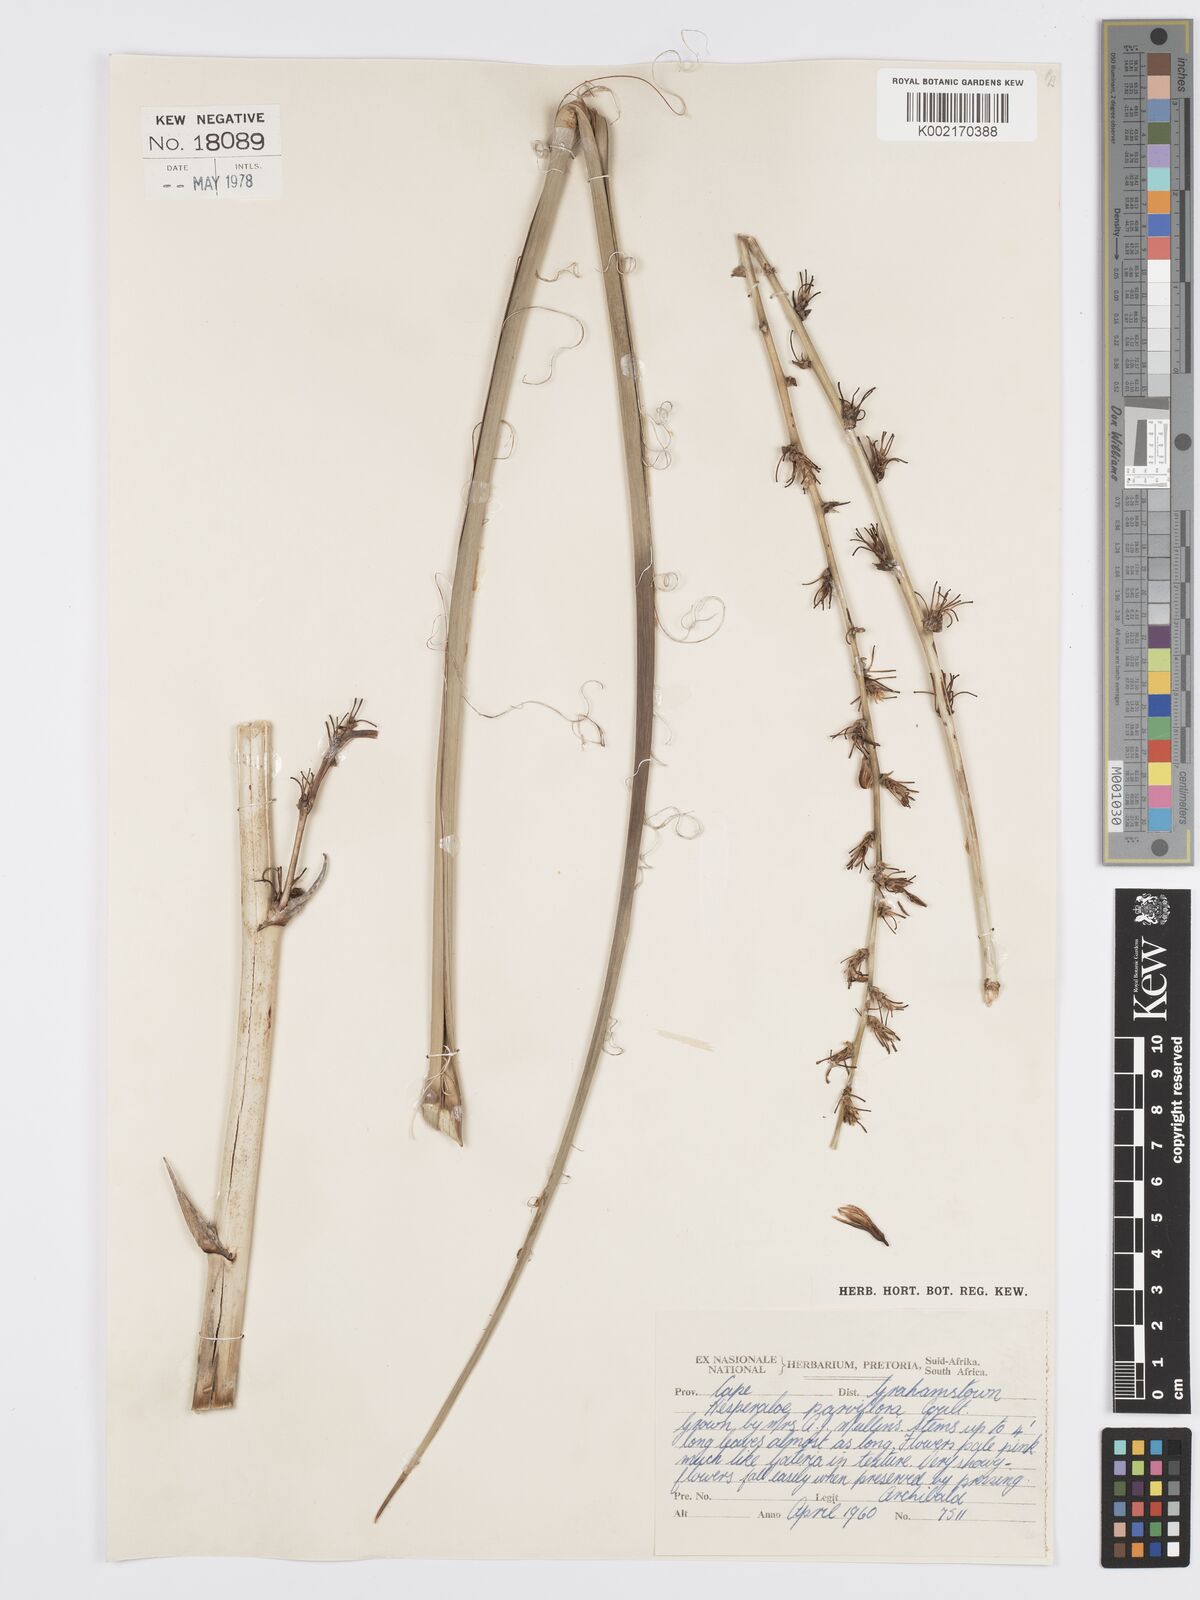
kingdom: Plantae
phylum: Tracheophyta
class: Liliopsida
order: Asparagales
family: Asparagaceae
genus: Hesperaloe
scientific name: Hesperaloe parviflora
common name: Red hesperaloe
